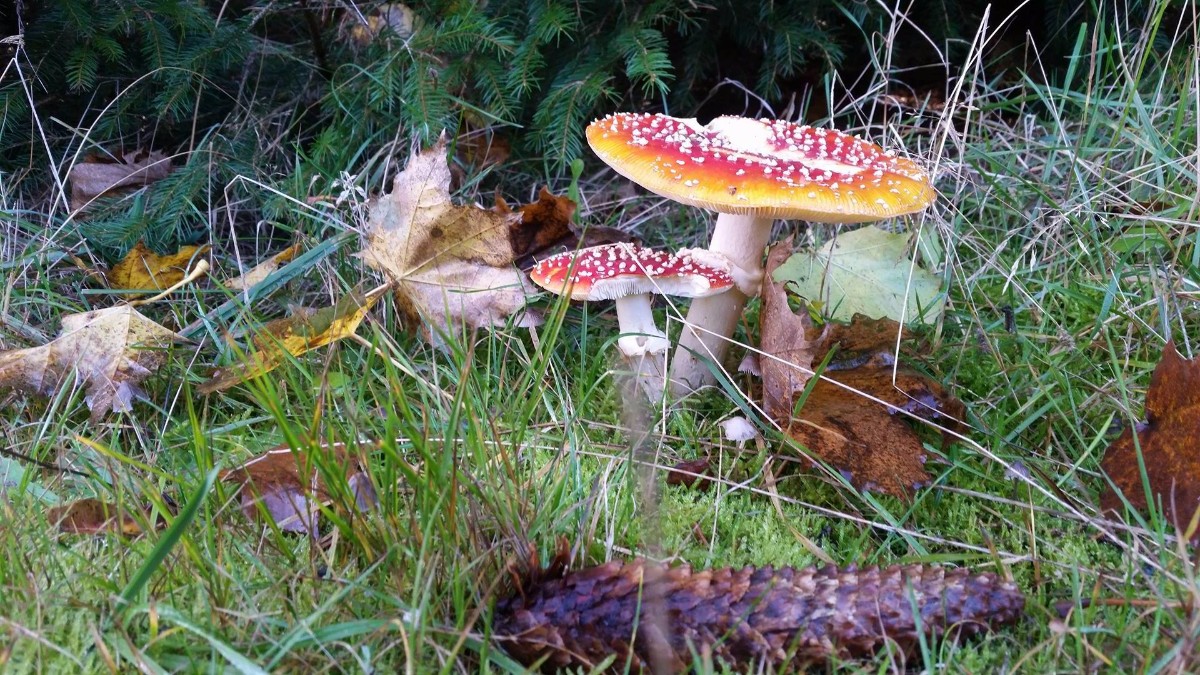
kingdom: Fungi
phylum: Basidiomycota
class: Agaricomycetes
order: Agaricales
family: Amanitaceae
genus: Amanita
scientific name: Amanita muscaria
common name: rød fluesvamp
